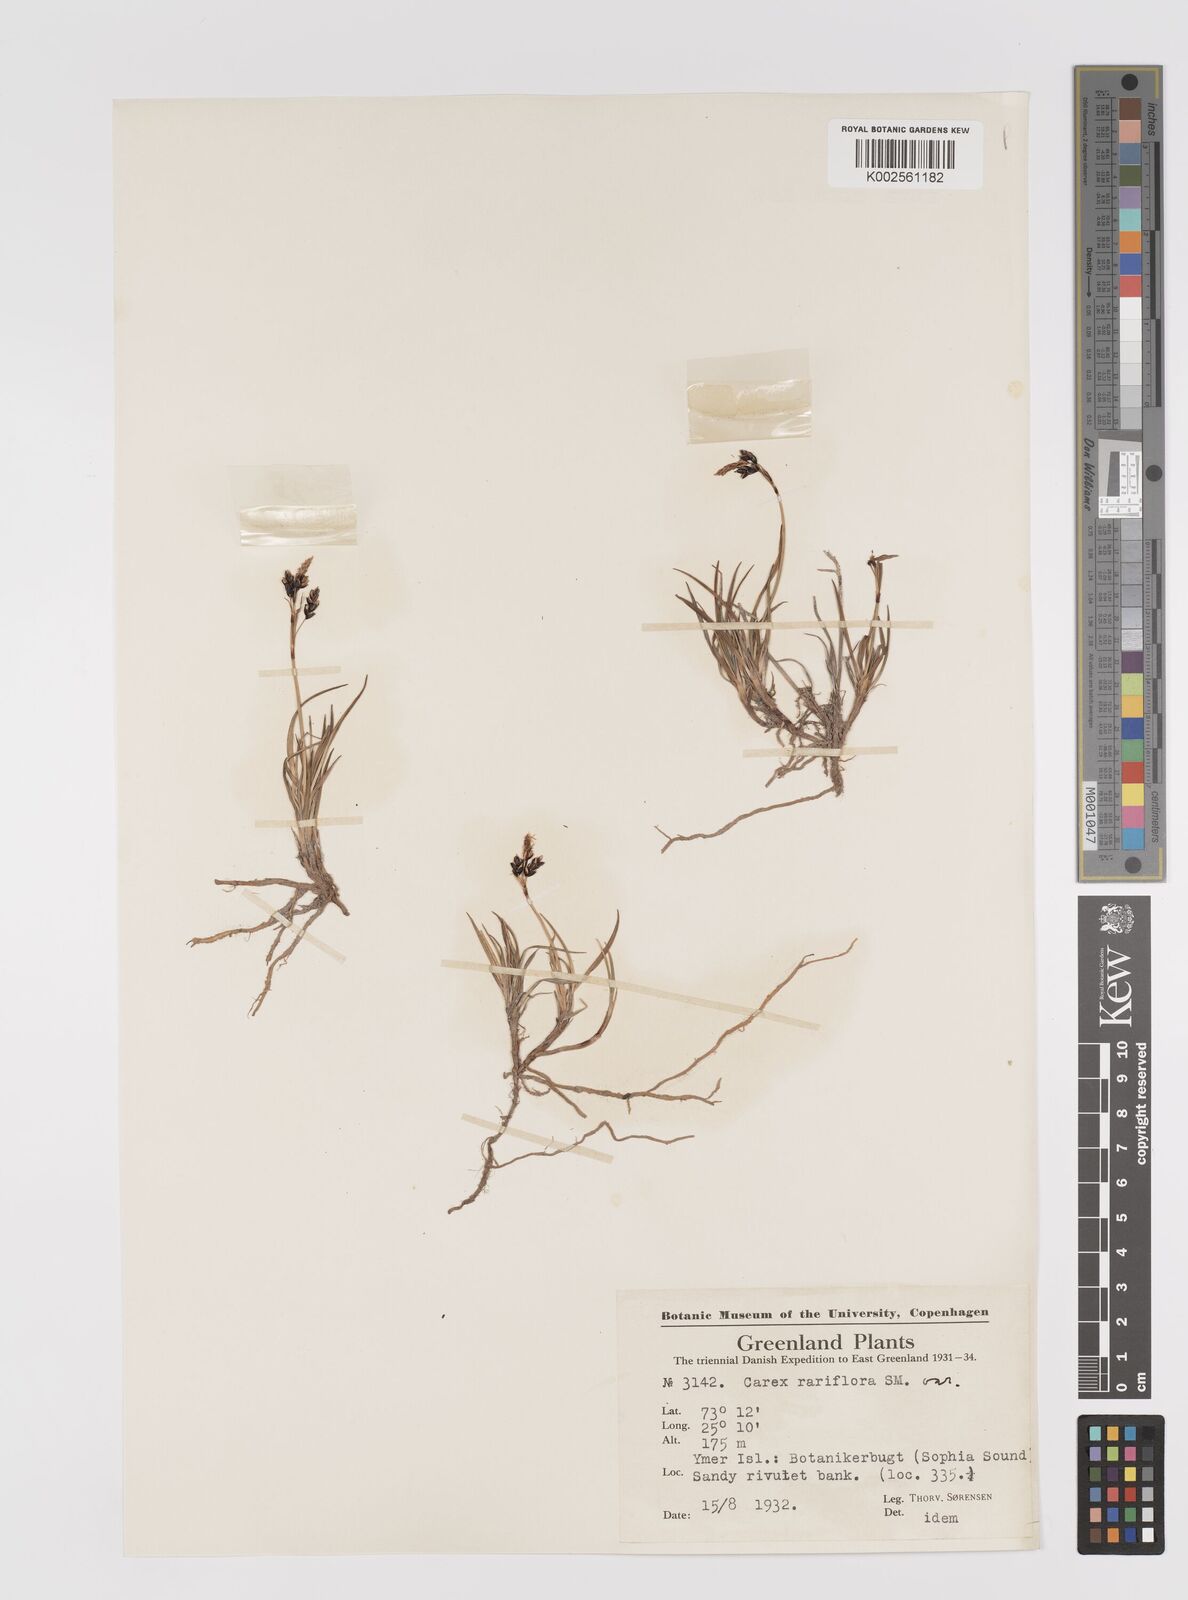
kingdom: Plantae
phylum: Tracheophyta
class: Liliopsida
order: Poales
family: Cyperaceae
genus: Carex
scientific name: Carex rariflora
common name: Loose-flowered alpine sedge
